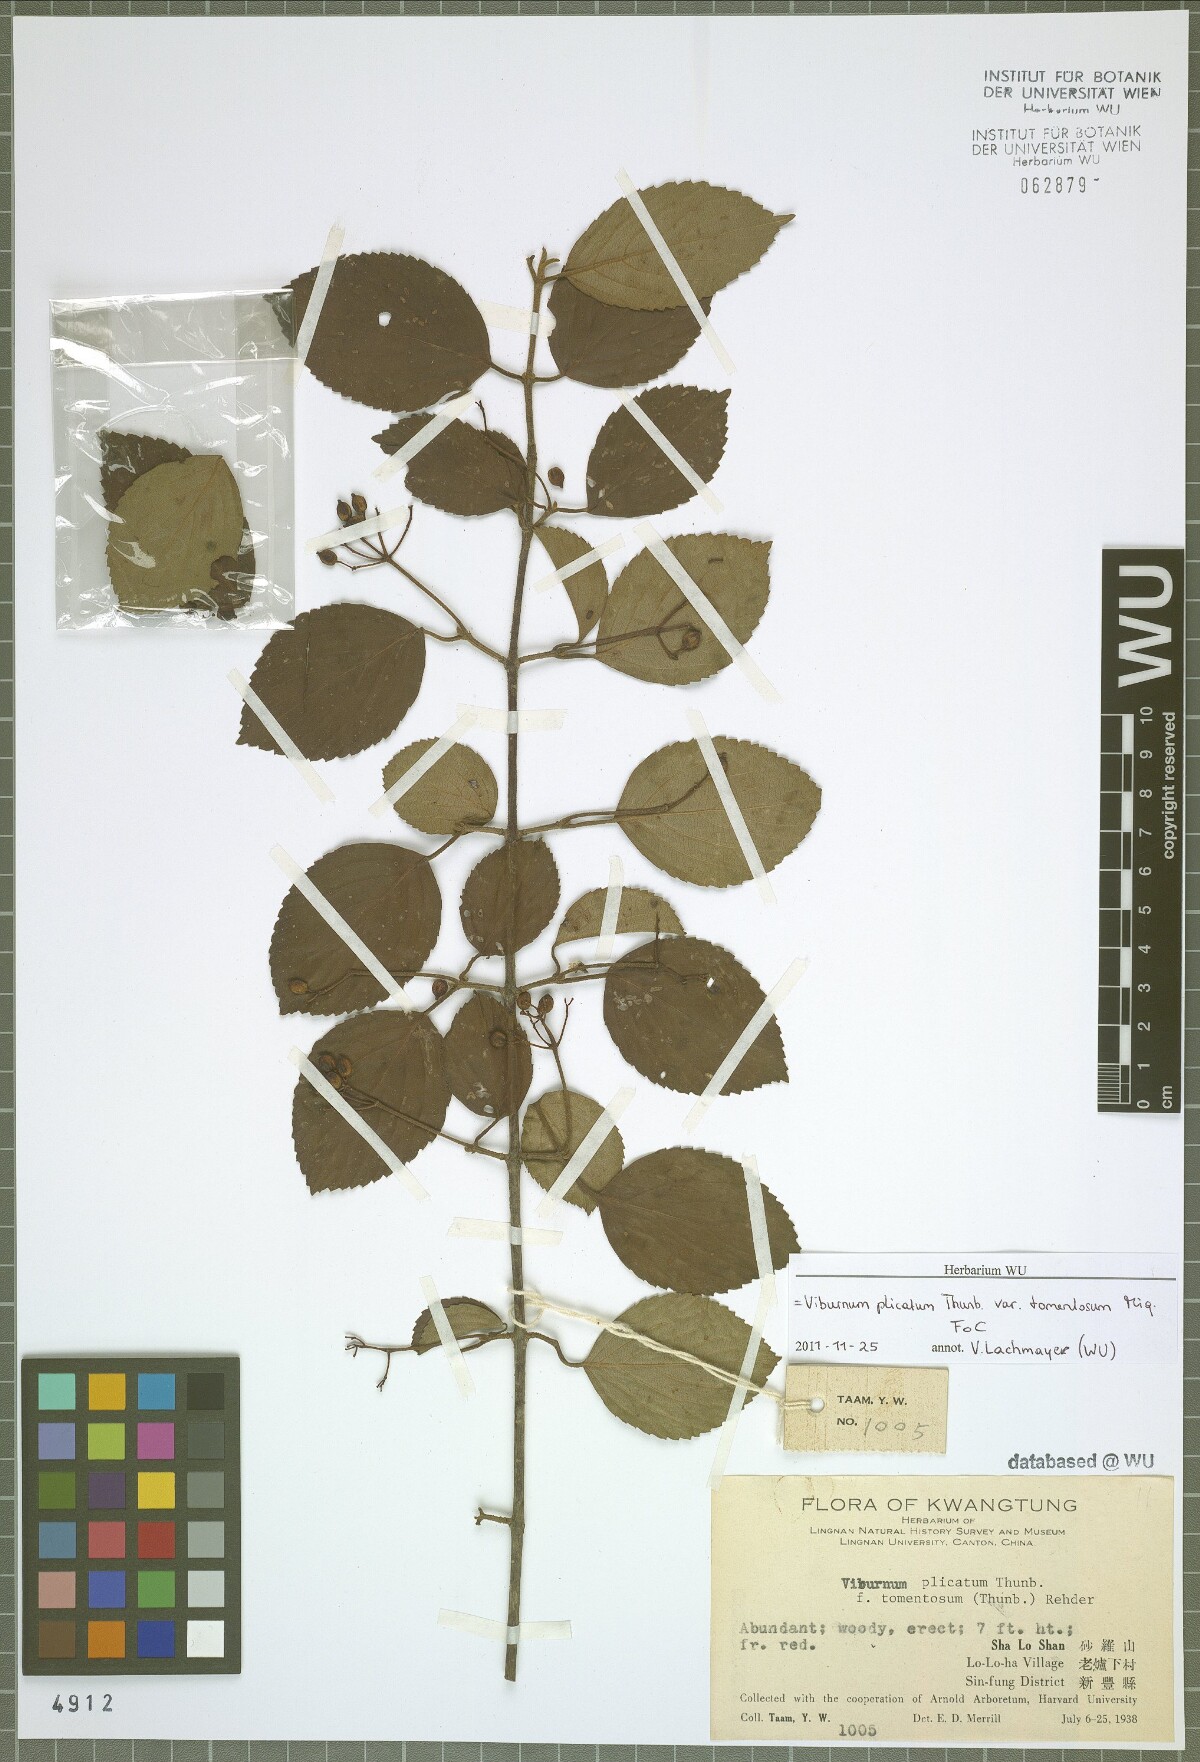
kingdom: Plantae
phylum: Tracheophyta
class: Magnoliopsida
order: Dipsacales
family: Viburnaceae
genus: Viburnum
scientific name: Viburnum plicatum
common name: Japanese snowball
